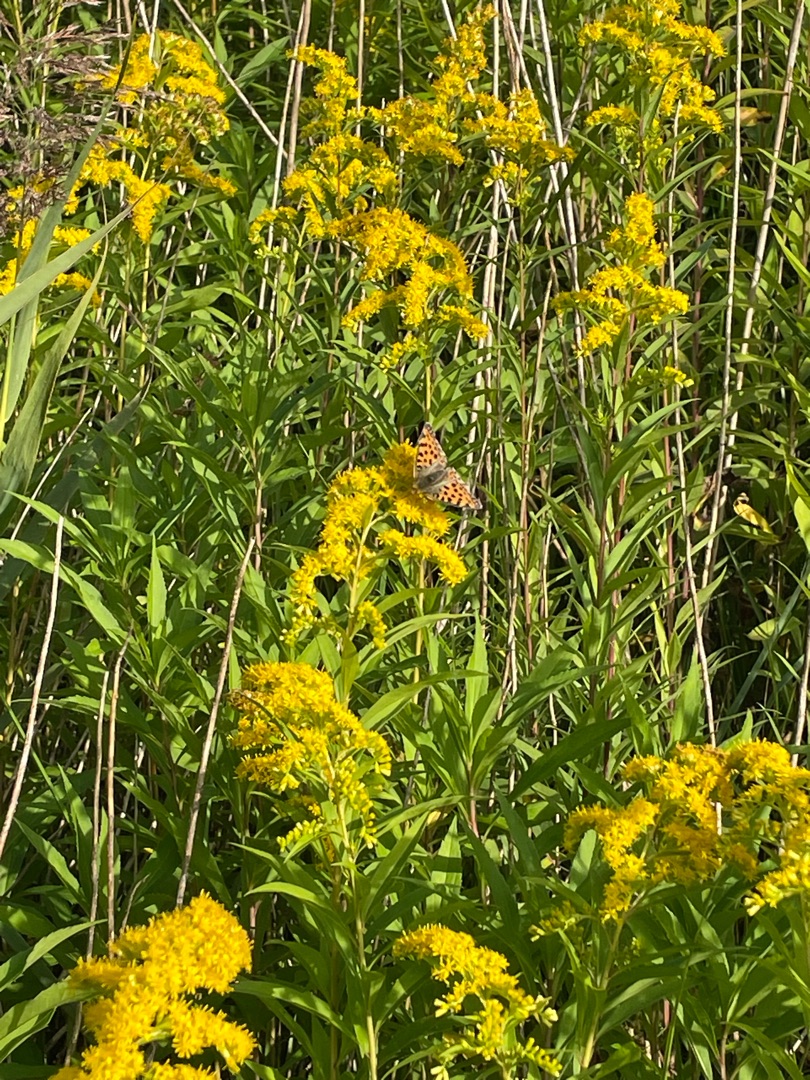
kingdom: Animalia
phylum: Arthropoda
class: Insecta
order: Lepidoptera
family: Nymphalidae
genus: Issoria
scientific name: Issoria lathonia
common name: Storplettet perlemorsommerfugl
